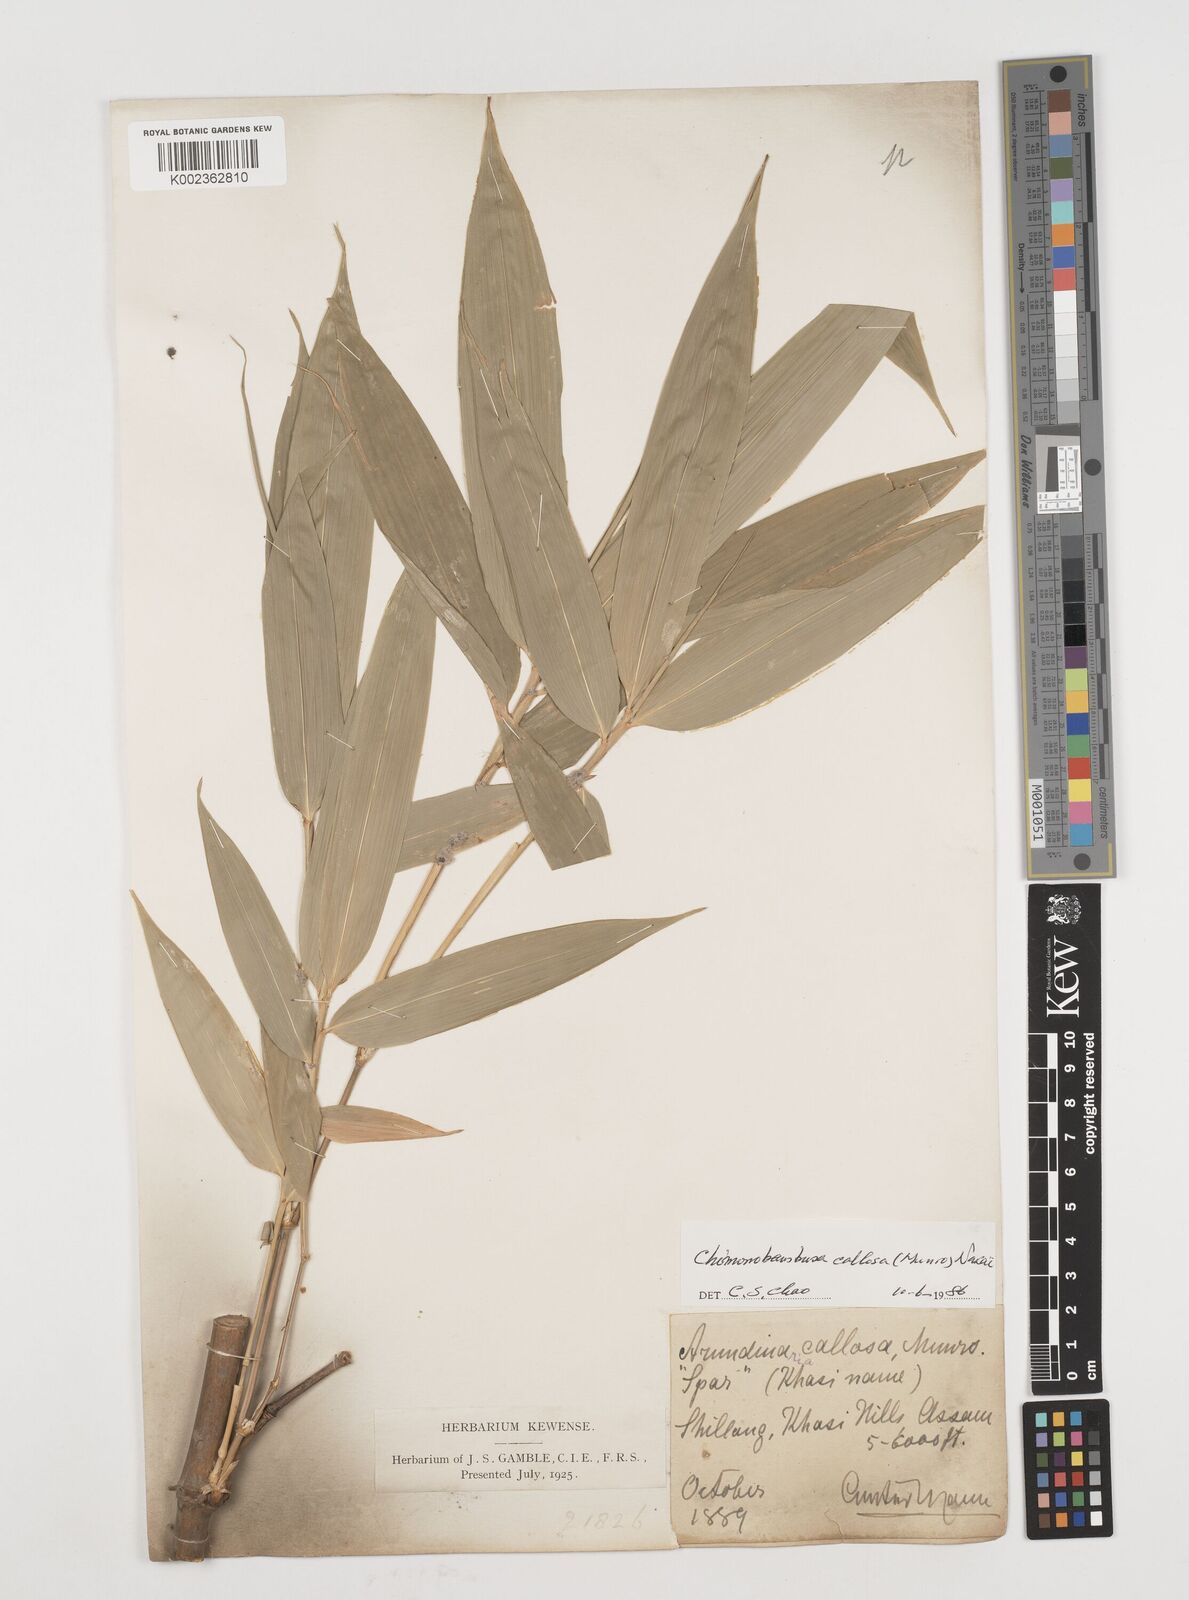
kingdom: Plantae
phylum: Tracheophyta
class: Liliopsida
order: Poales
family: Poaceae
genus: Chimonobambusa
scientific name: Chimonobambusa callosa
